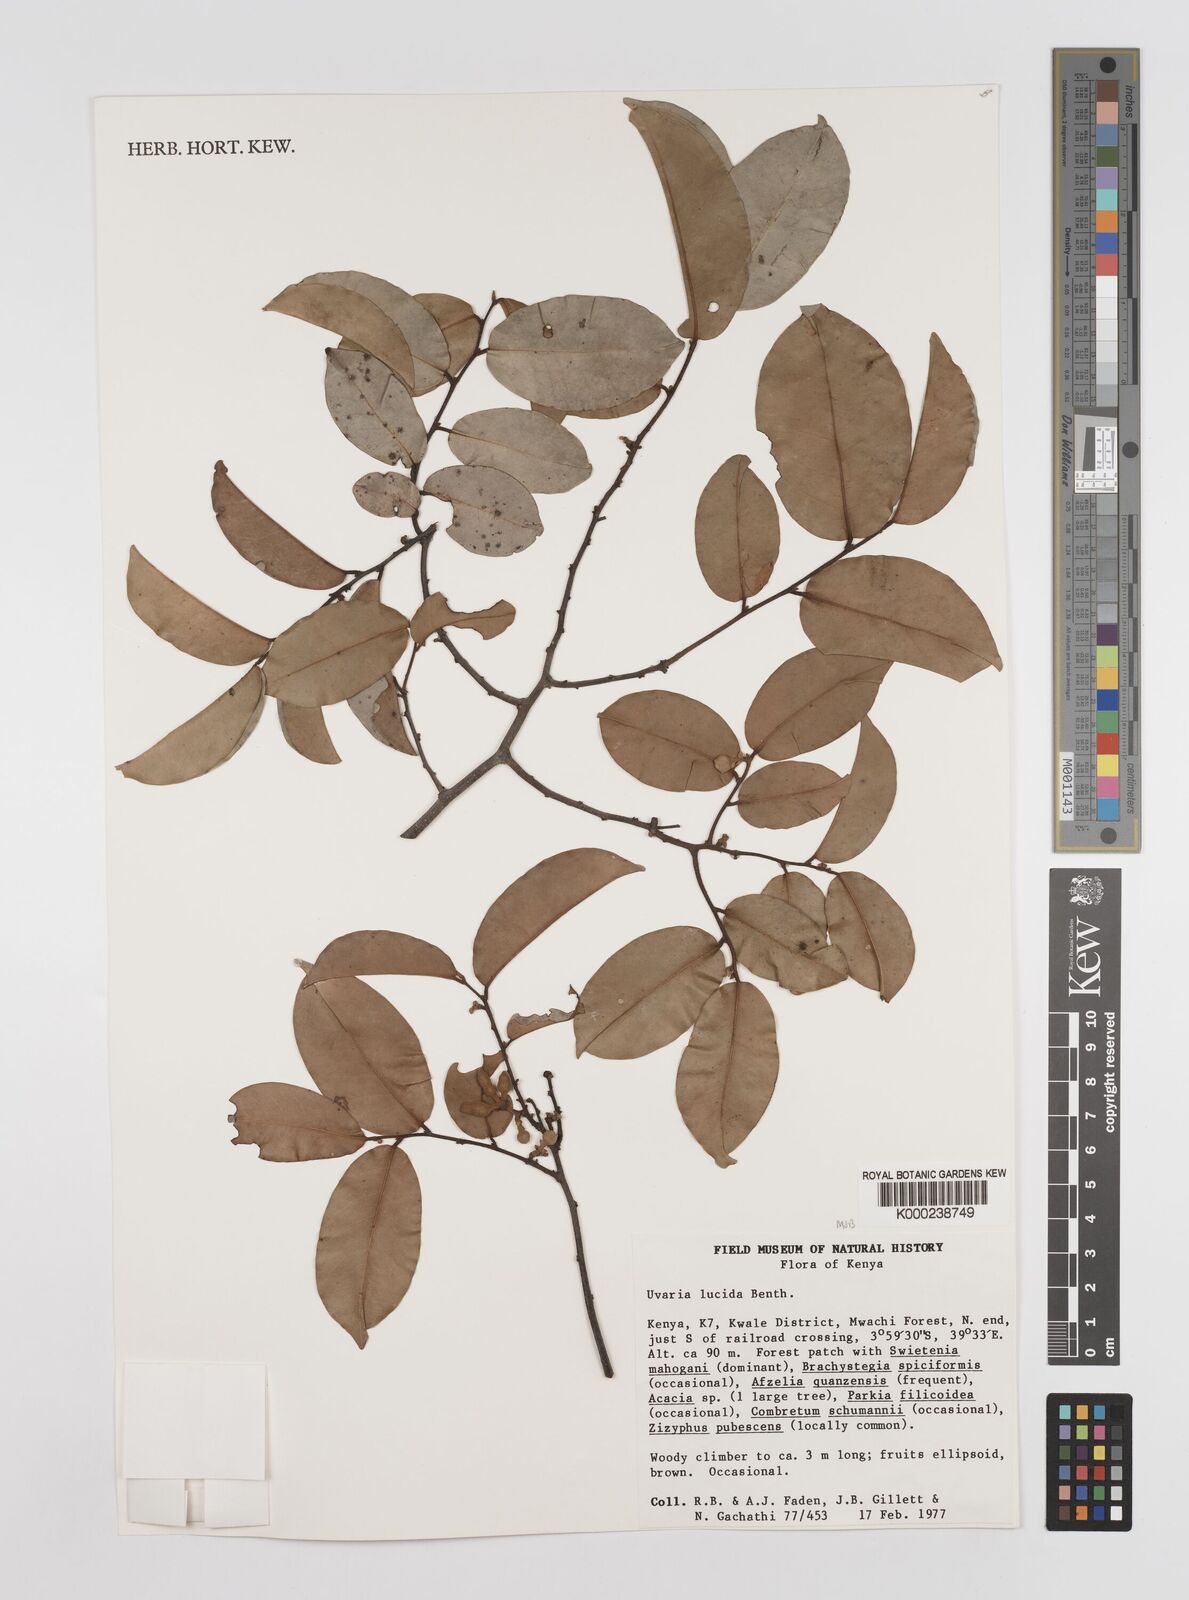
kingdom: Plantae
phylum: Tracheophyta
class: Magnoliopsida
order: Magnoliales
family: Annonaceae
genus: Uvaria
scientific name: Uvaria lucida
